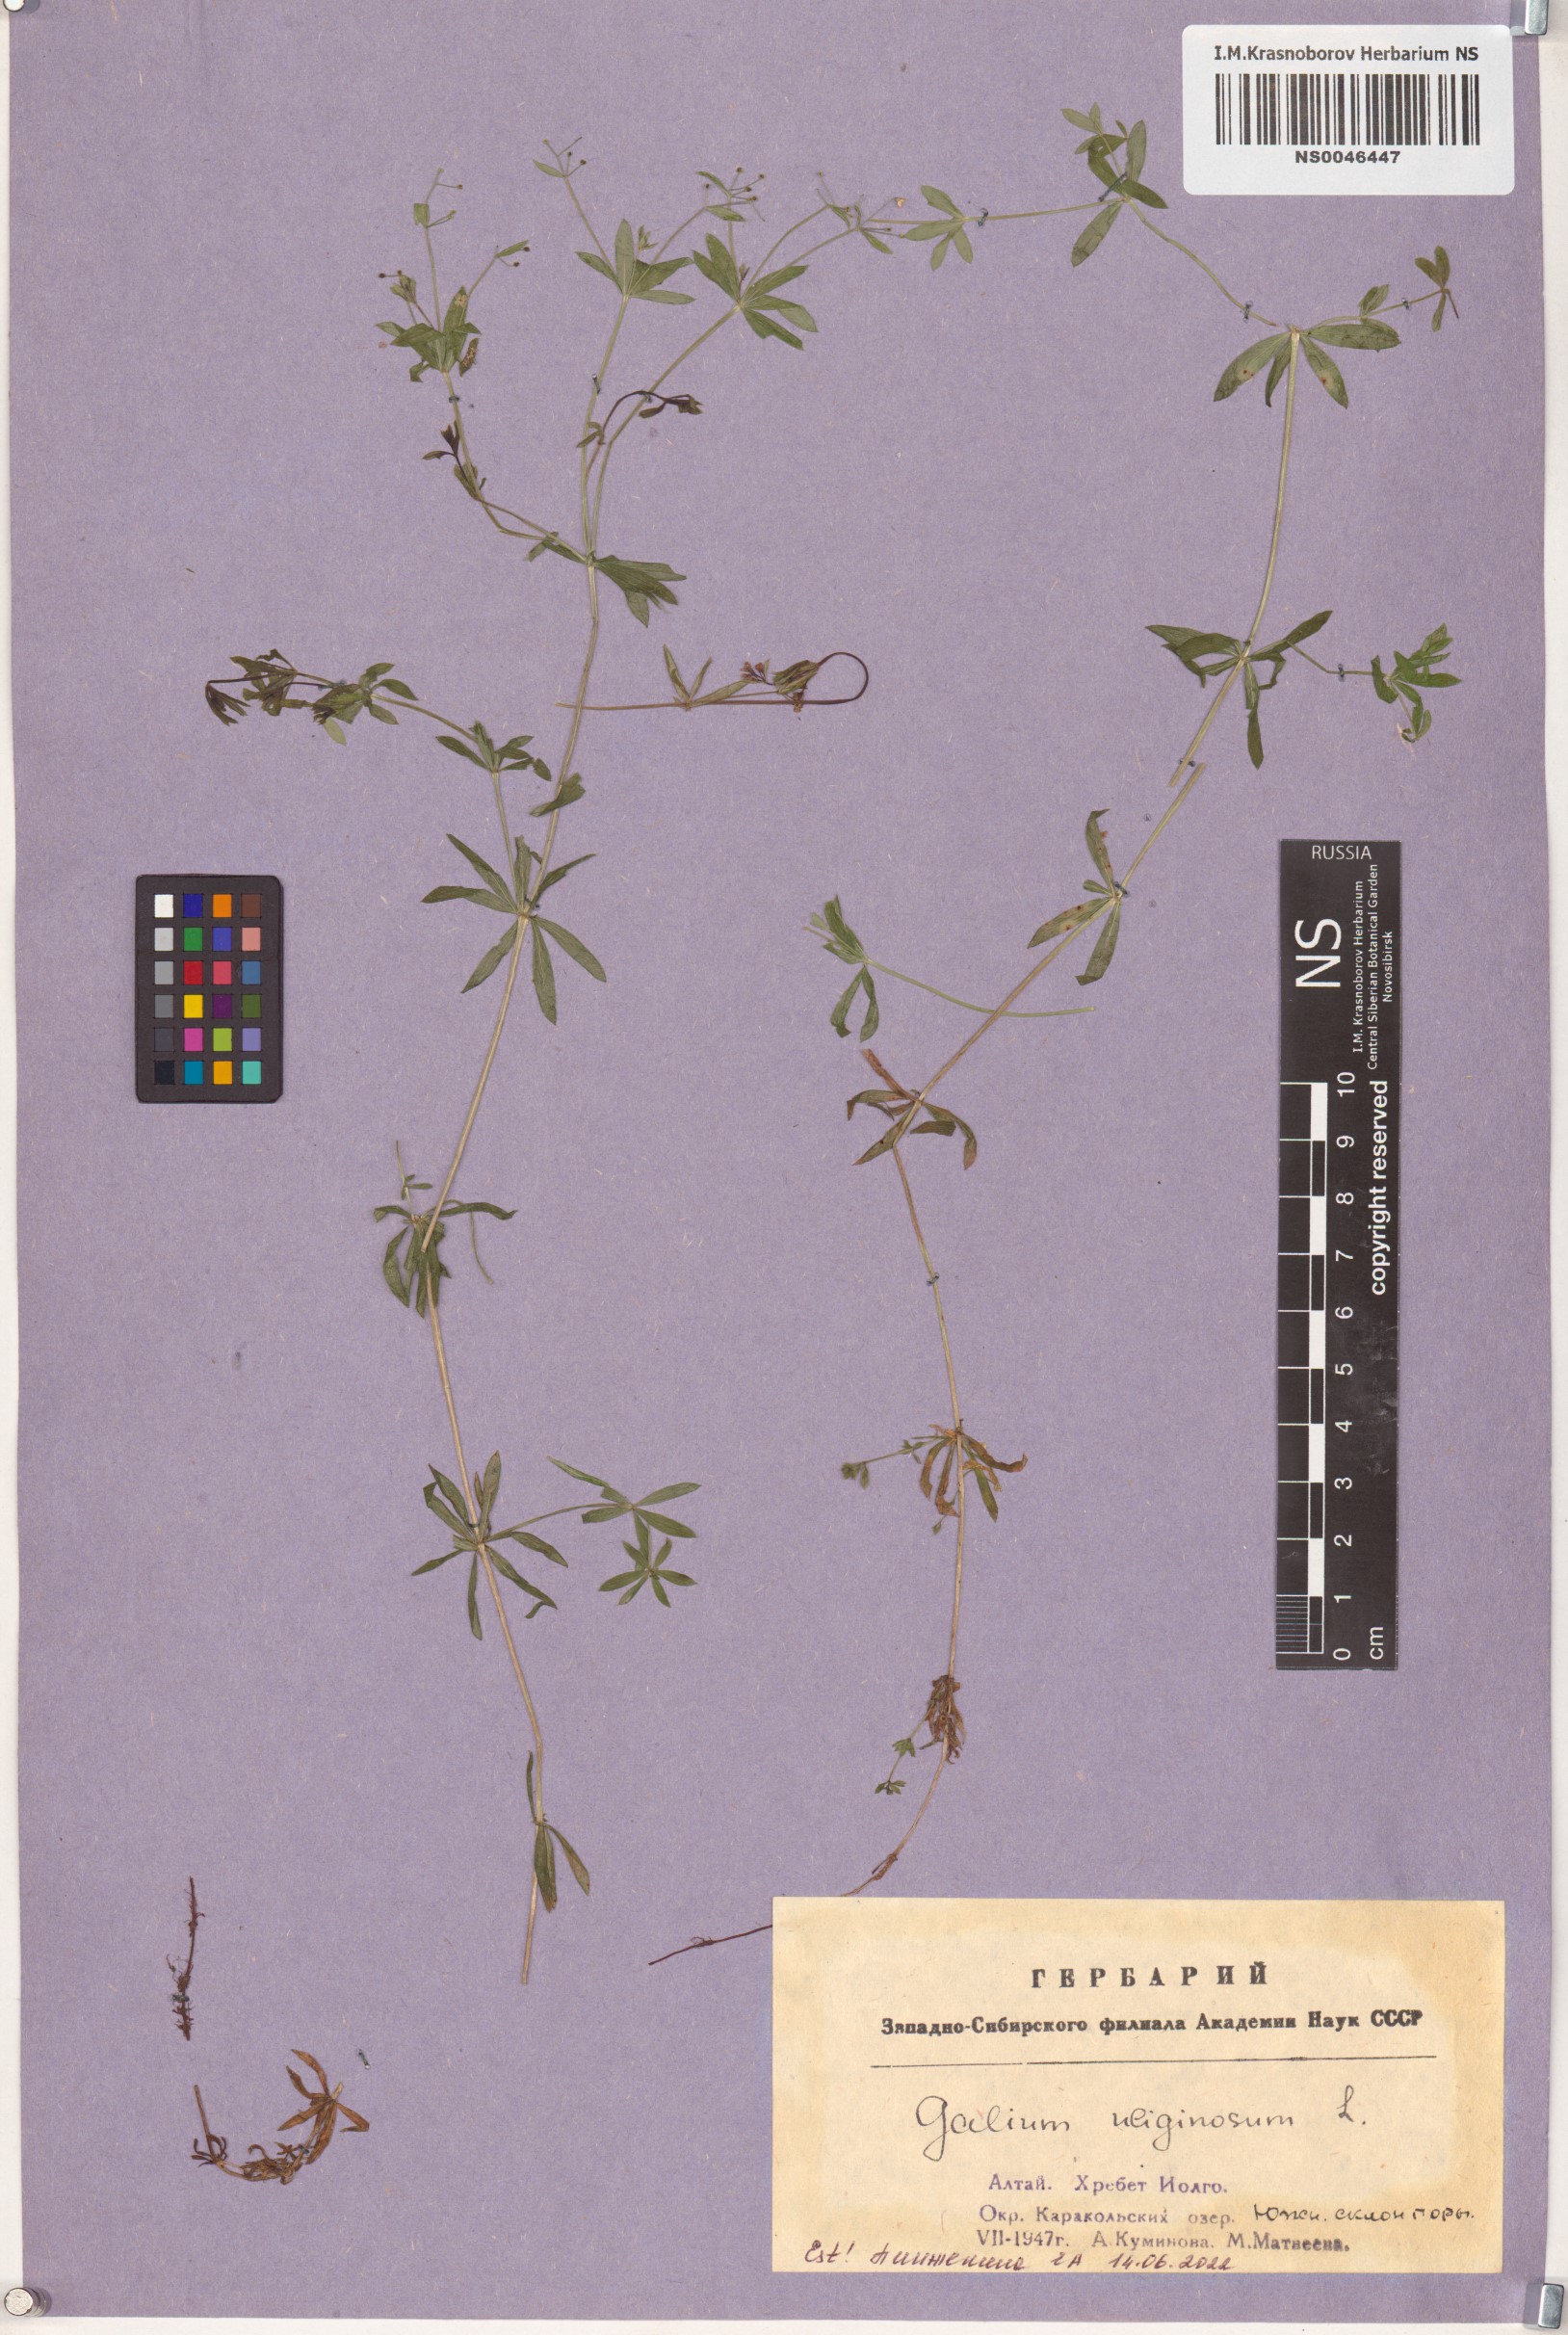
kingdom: Plantae
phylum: Tracheophyta
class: Magnoliopsida
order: Gentianales
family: Rubiaceae
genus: Galium
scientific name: Galium uliginosum
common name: Fen bedstraw
